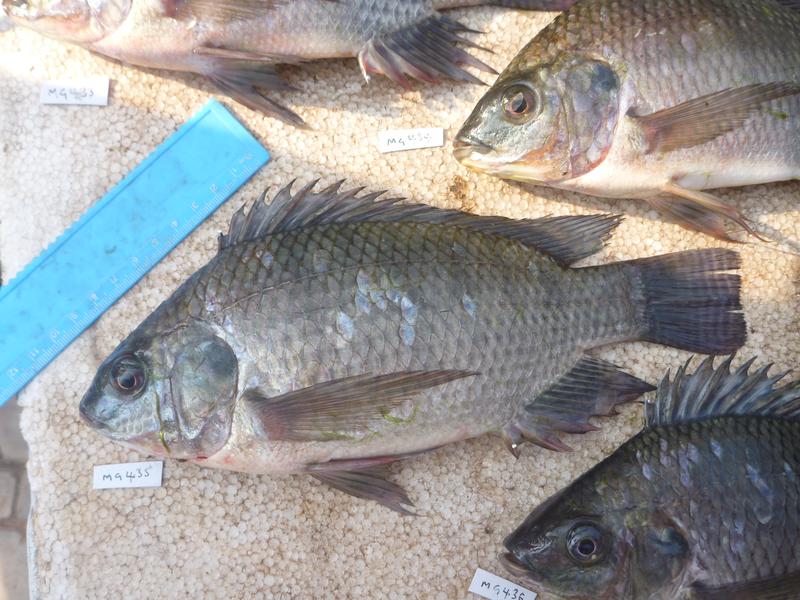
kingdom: Animalia
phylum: Chordata
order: Perciformes
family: Cichlidae
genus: Oreochromis
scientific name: Oreochromis niloticus
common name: Nile tilapia
